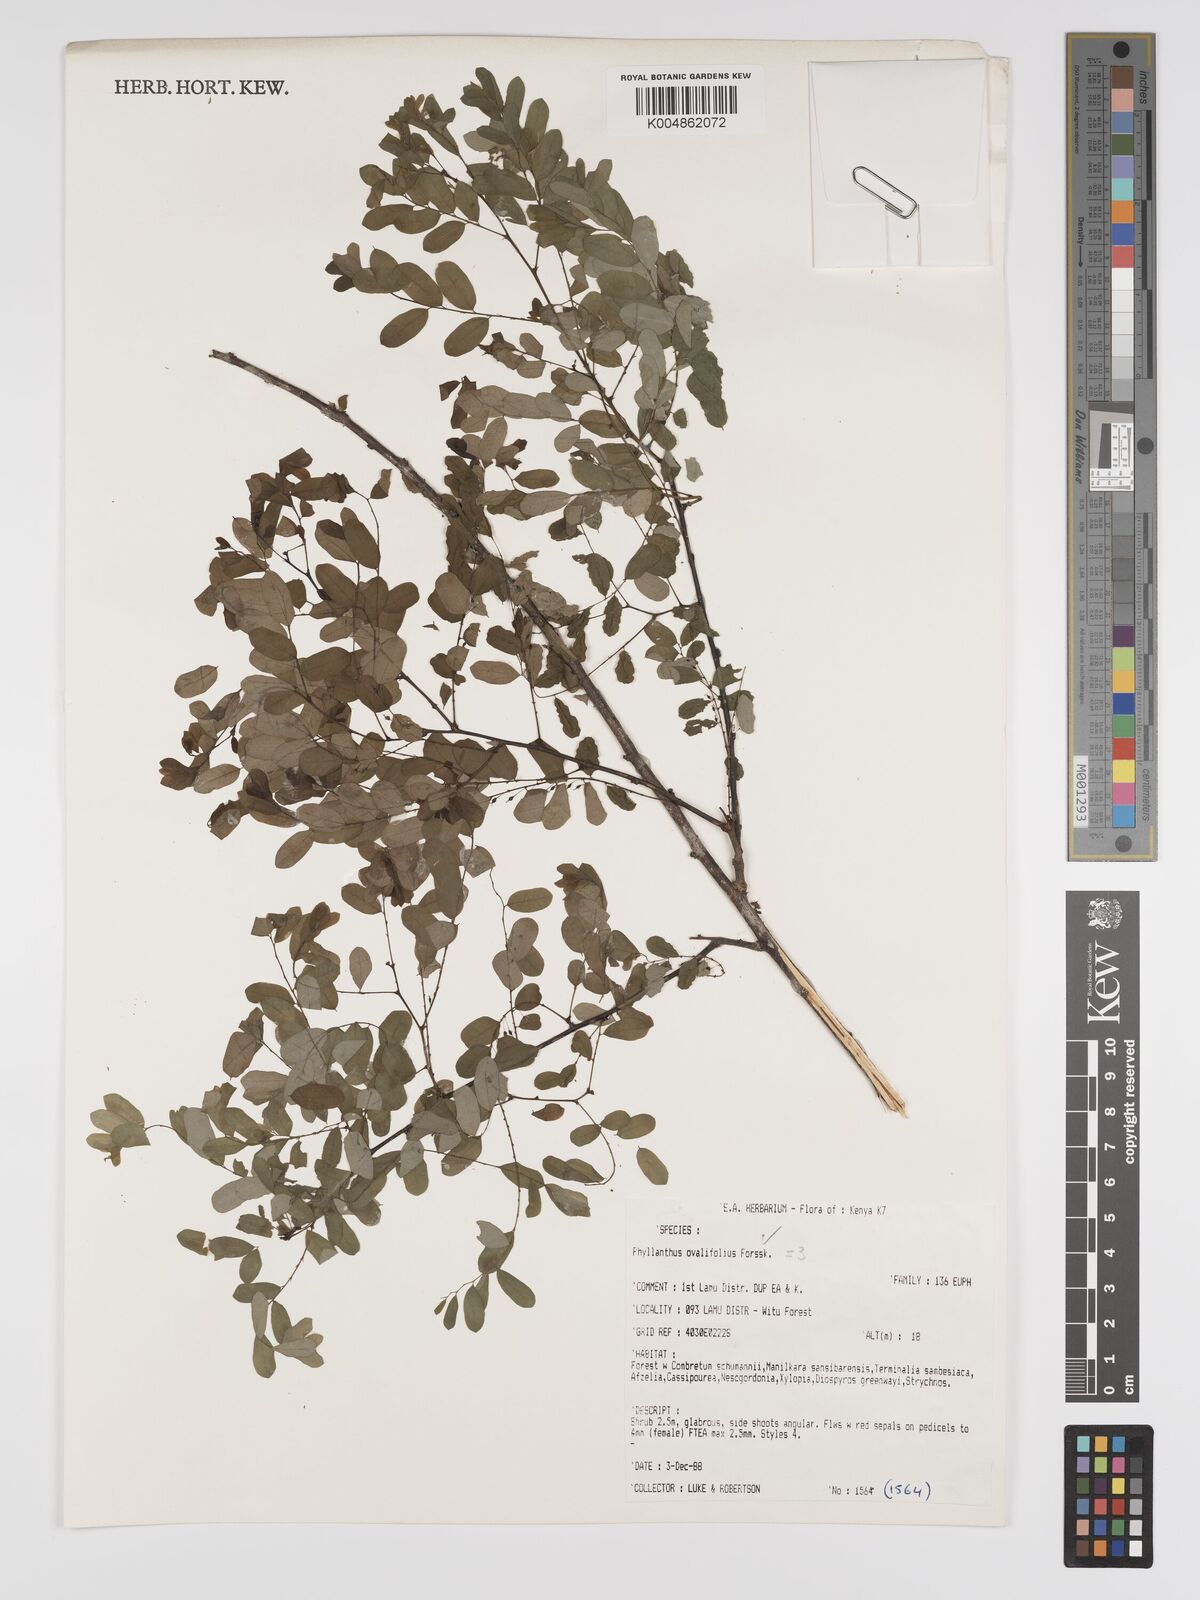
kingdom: Plantae
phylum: Tracheophyta
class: Magnoliopsida
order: Malpighiales
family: Phyllanthaceae
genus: Phyllanthus
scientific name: Phyllanthus ovalifolius
